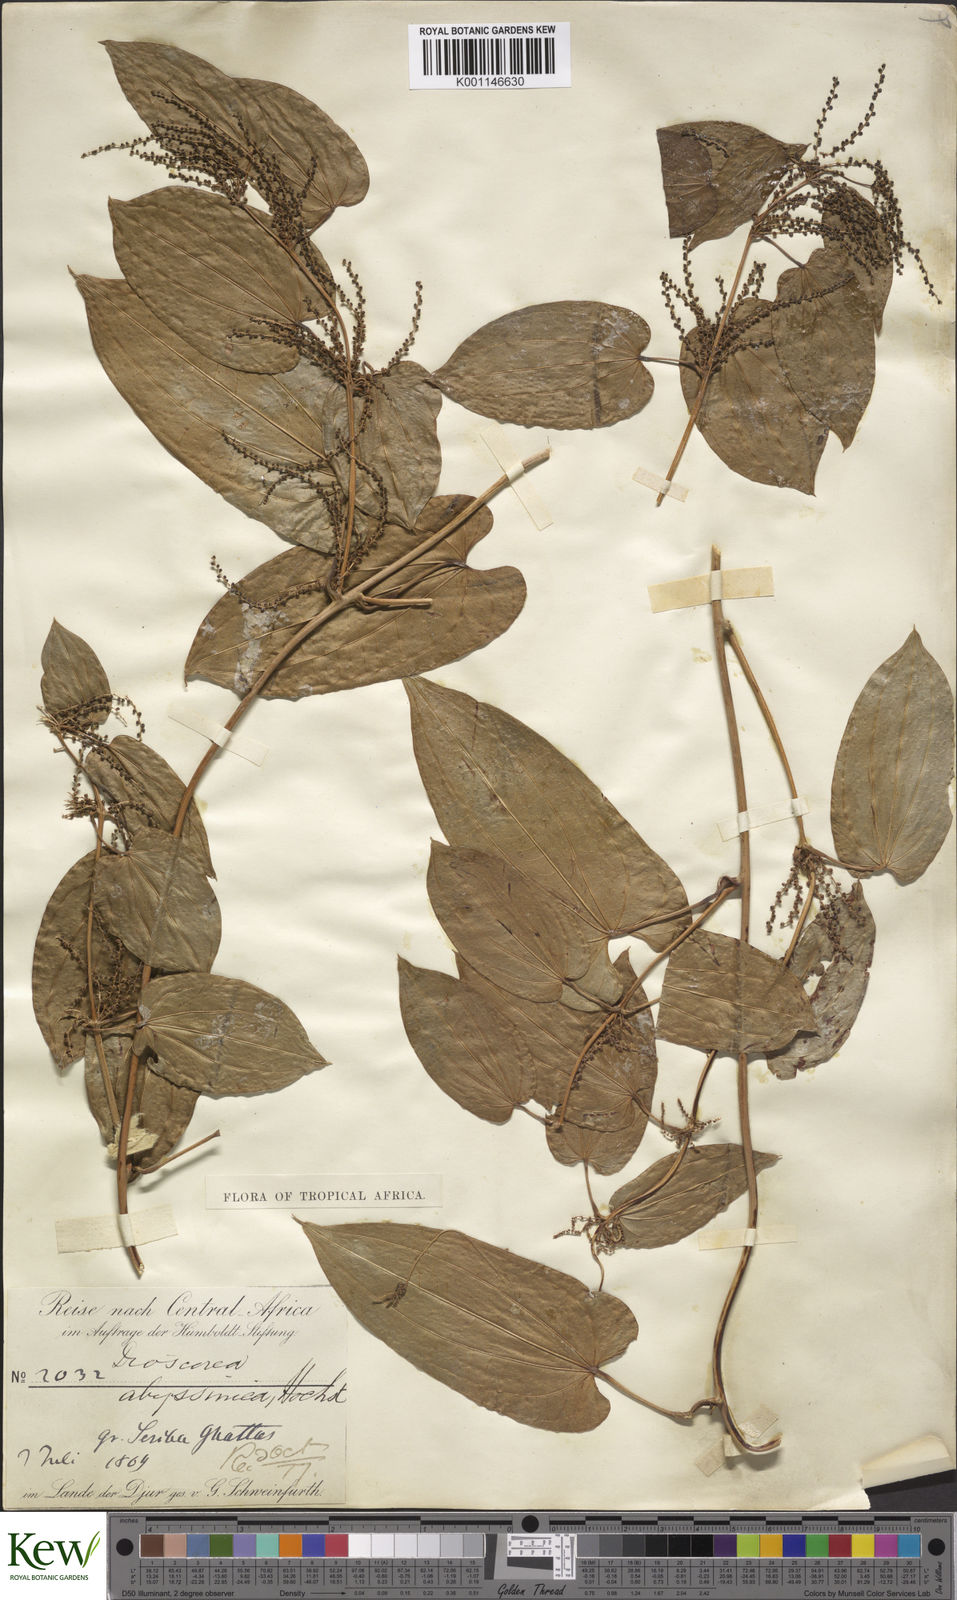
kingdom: Plantae
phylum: Tracheophyta
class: Liliopsida
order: Dioscoreales
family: Dioscoreaceae
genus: Dioscorea
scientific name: Dioscorea abyssinica
